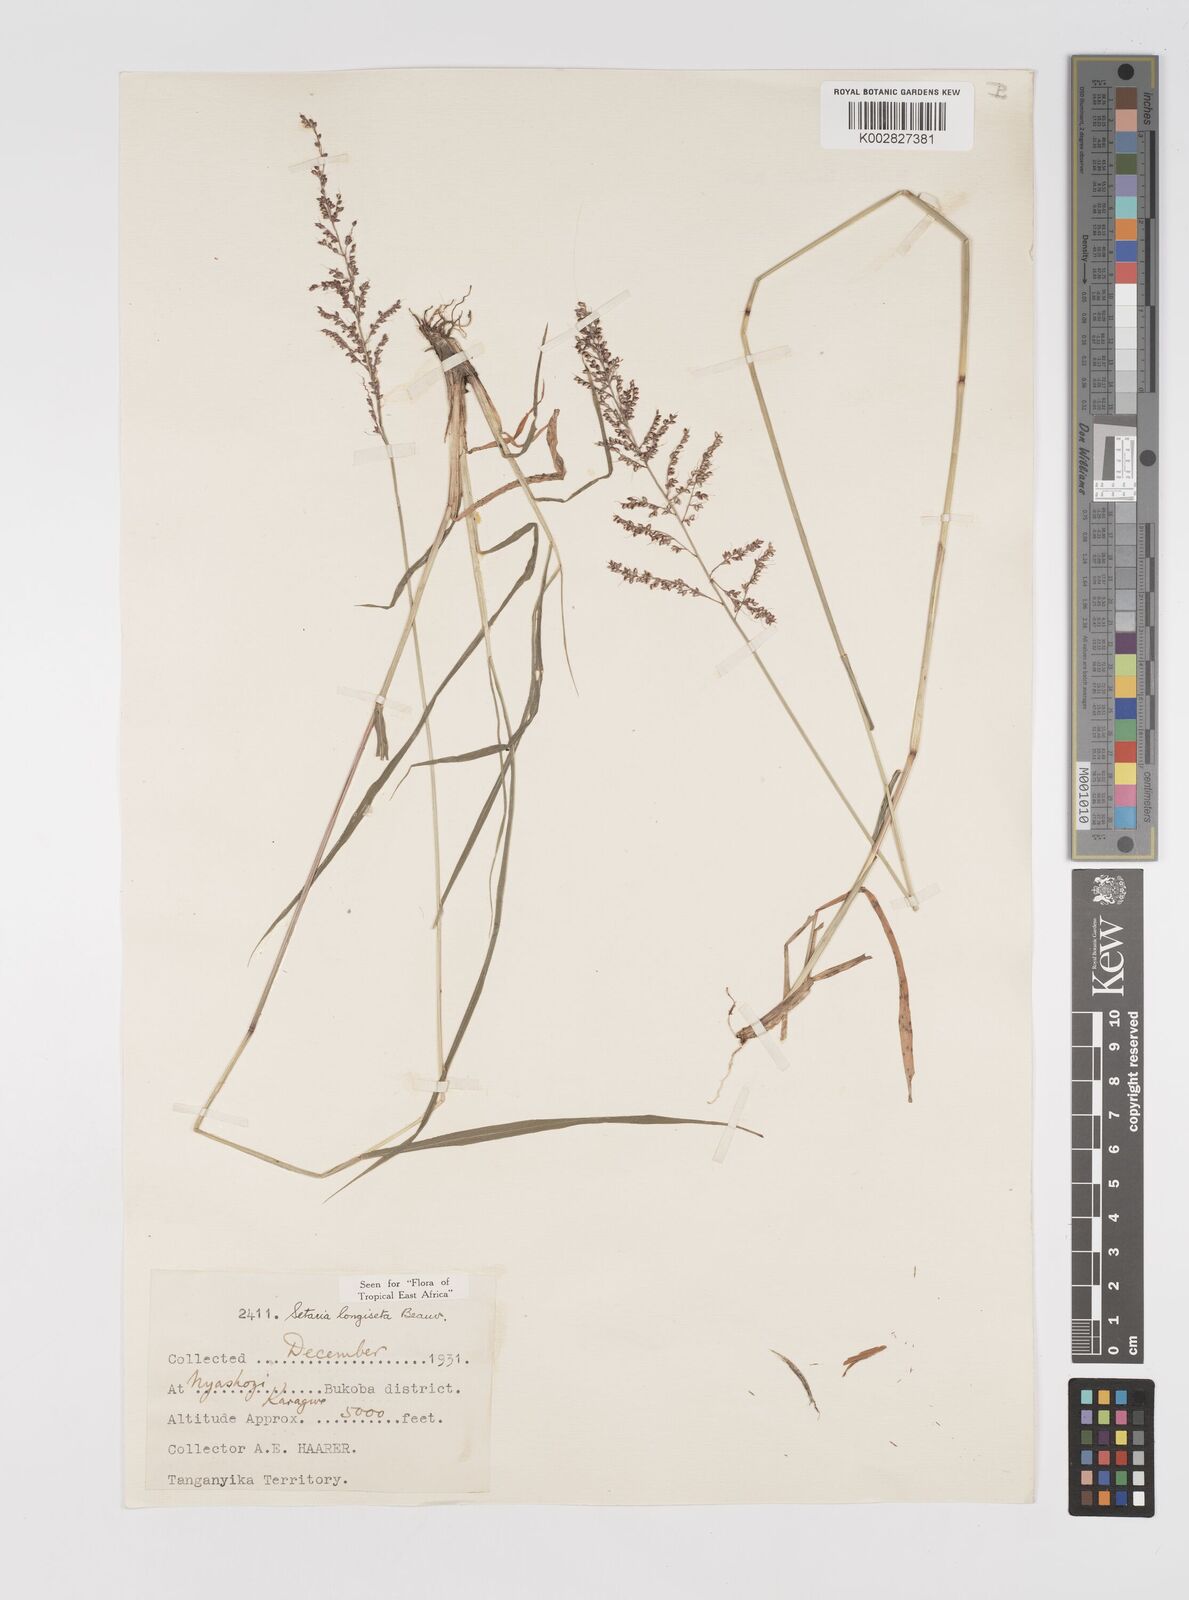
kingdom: Plantae
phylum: Tracheophyta
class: Liliopsida
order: Poales
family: Poaceae
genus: Setaria
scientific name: Setaria longiseta
